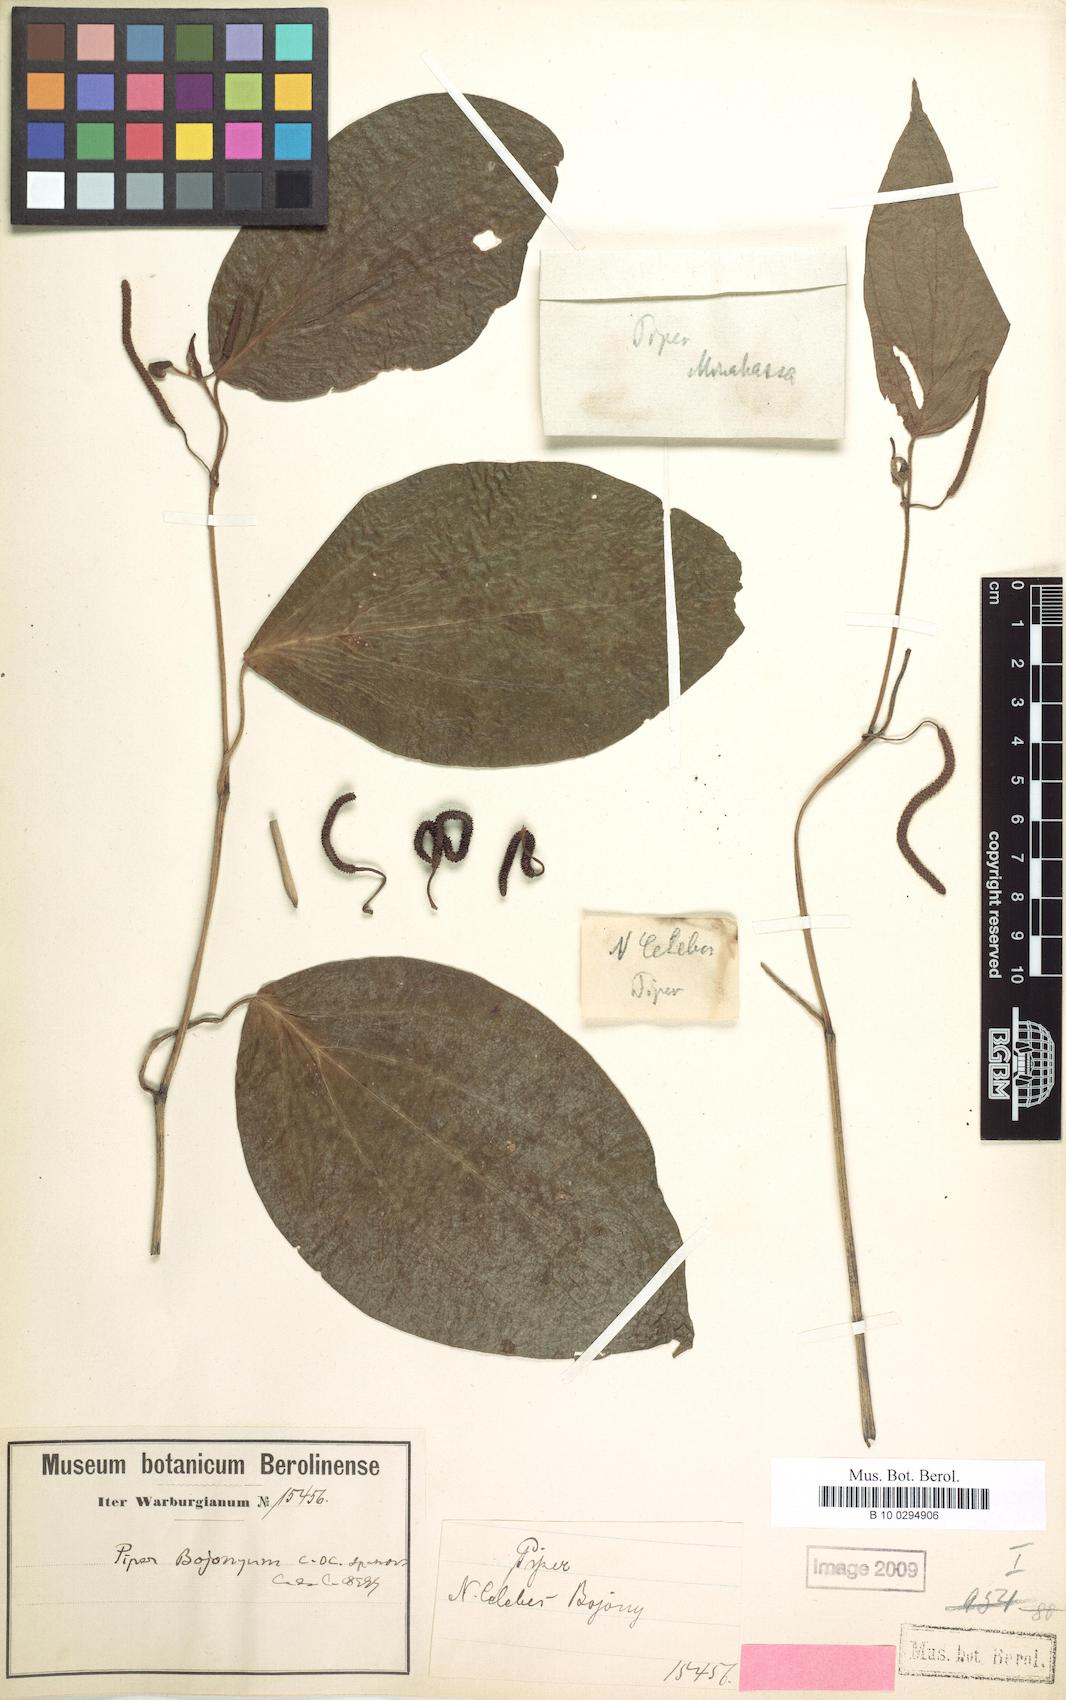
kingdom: Plantae
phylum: Tracheophyta
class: Magnoliopsida
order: Piperales
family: Piperaceae
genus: Piper
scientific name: Piper bojonyum
